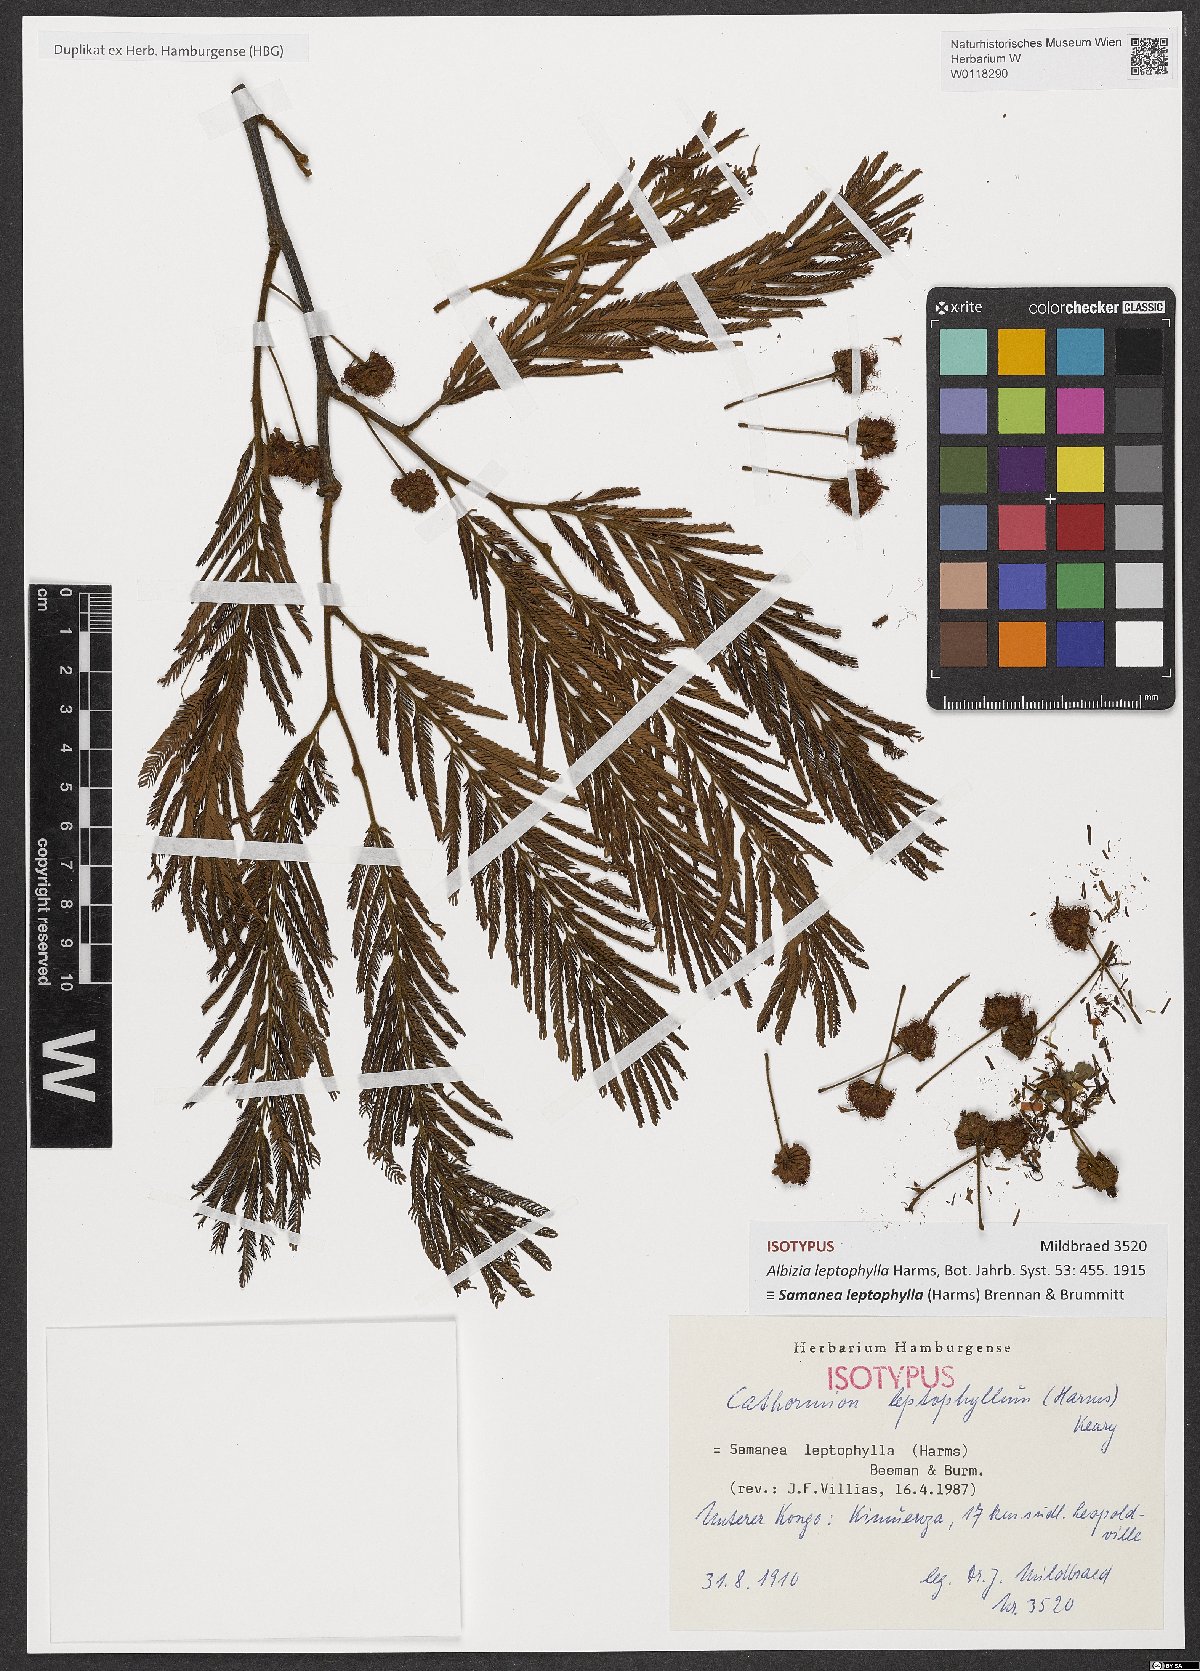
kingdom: Plantae
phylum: Tracheophyta
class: Magnoliopsida
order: Fabales
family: Fabaceae
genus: Samanea
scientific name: Samanea leptophylla
